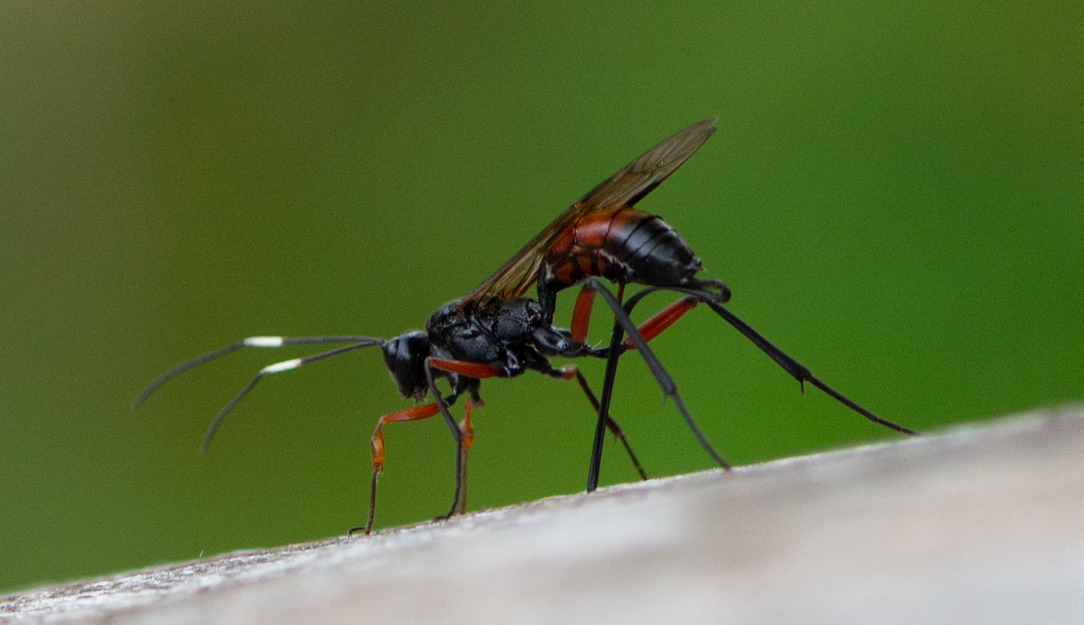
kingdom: Animalia
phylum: Arthropoda
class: Insecta
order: Hymenoptera
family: Ichneumonidae
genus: Echthrus
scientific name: Echthrus reluctator
